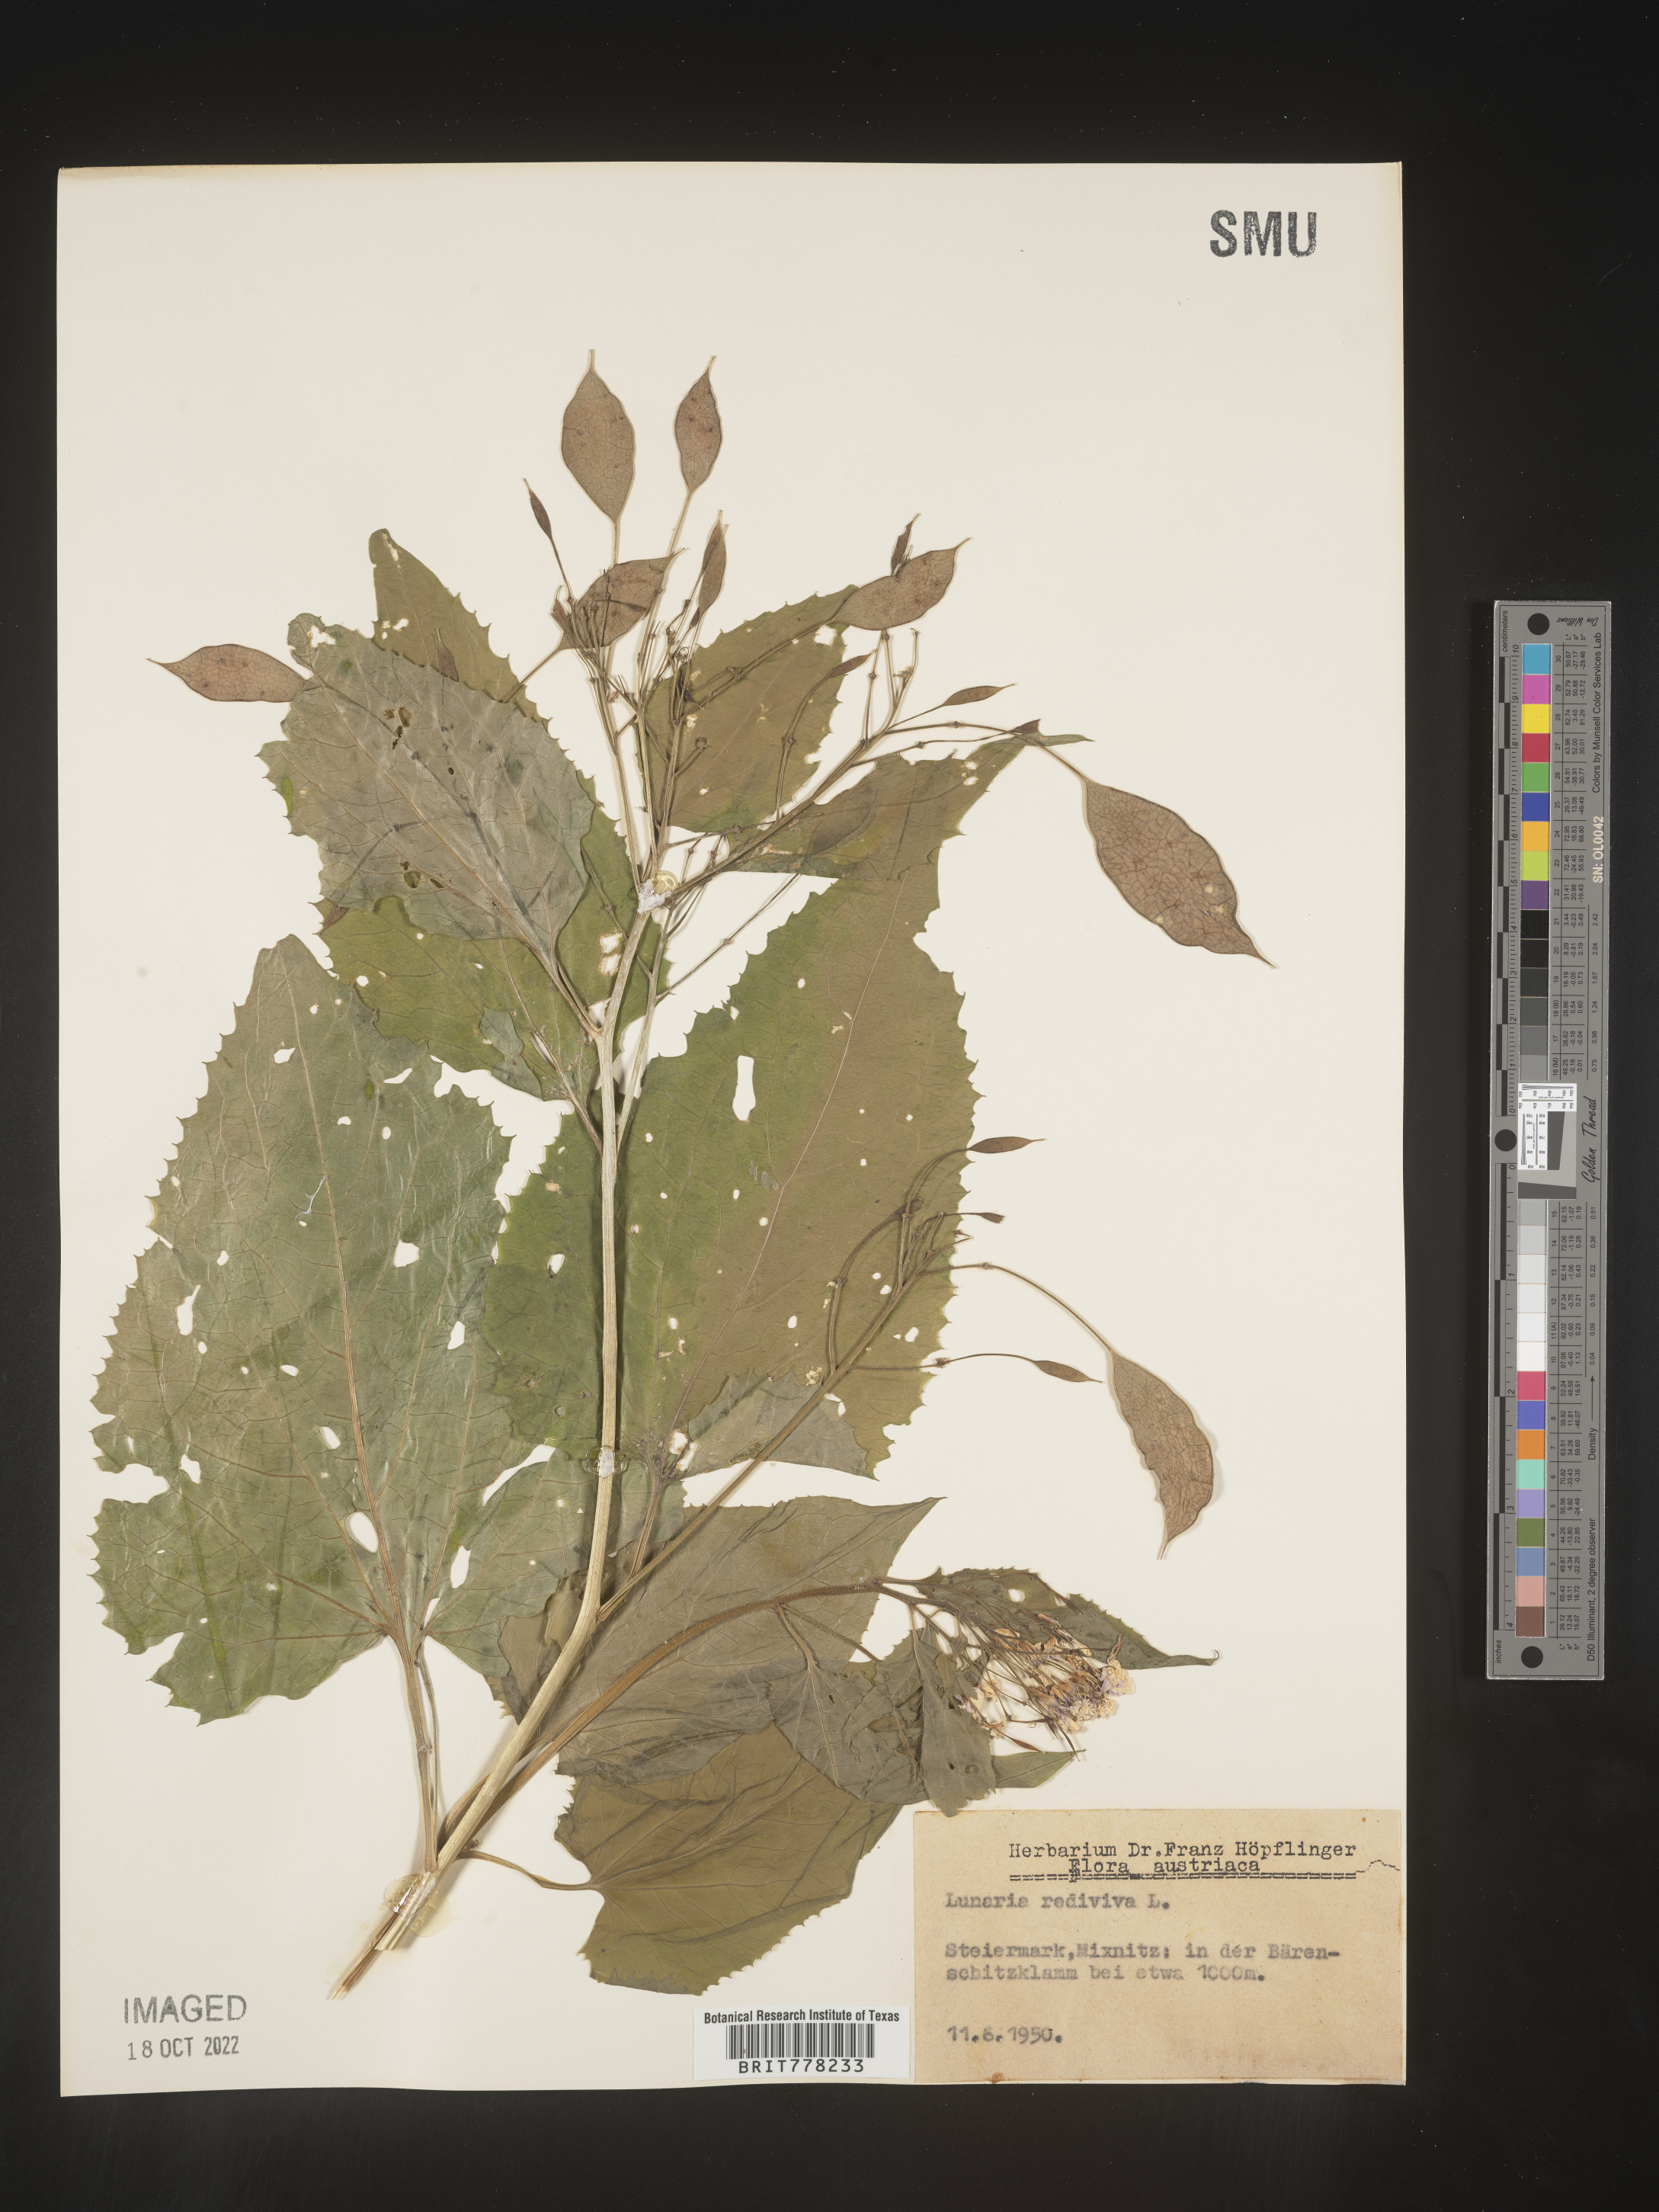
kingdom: Plantae
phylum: Tracheophyta
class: Magnoliopsida
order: Brassicales
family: Brassicaceae
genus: Lunaria
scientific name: Lunaria
